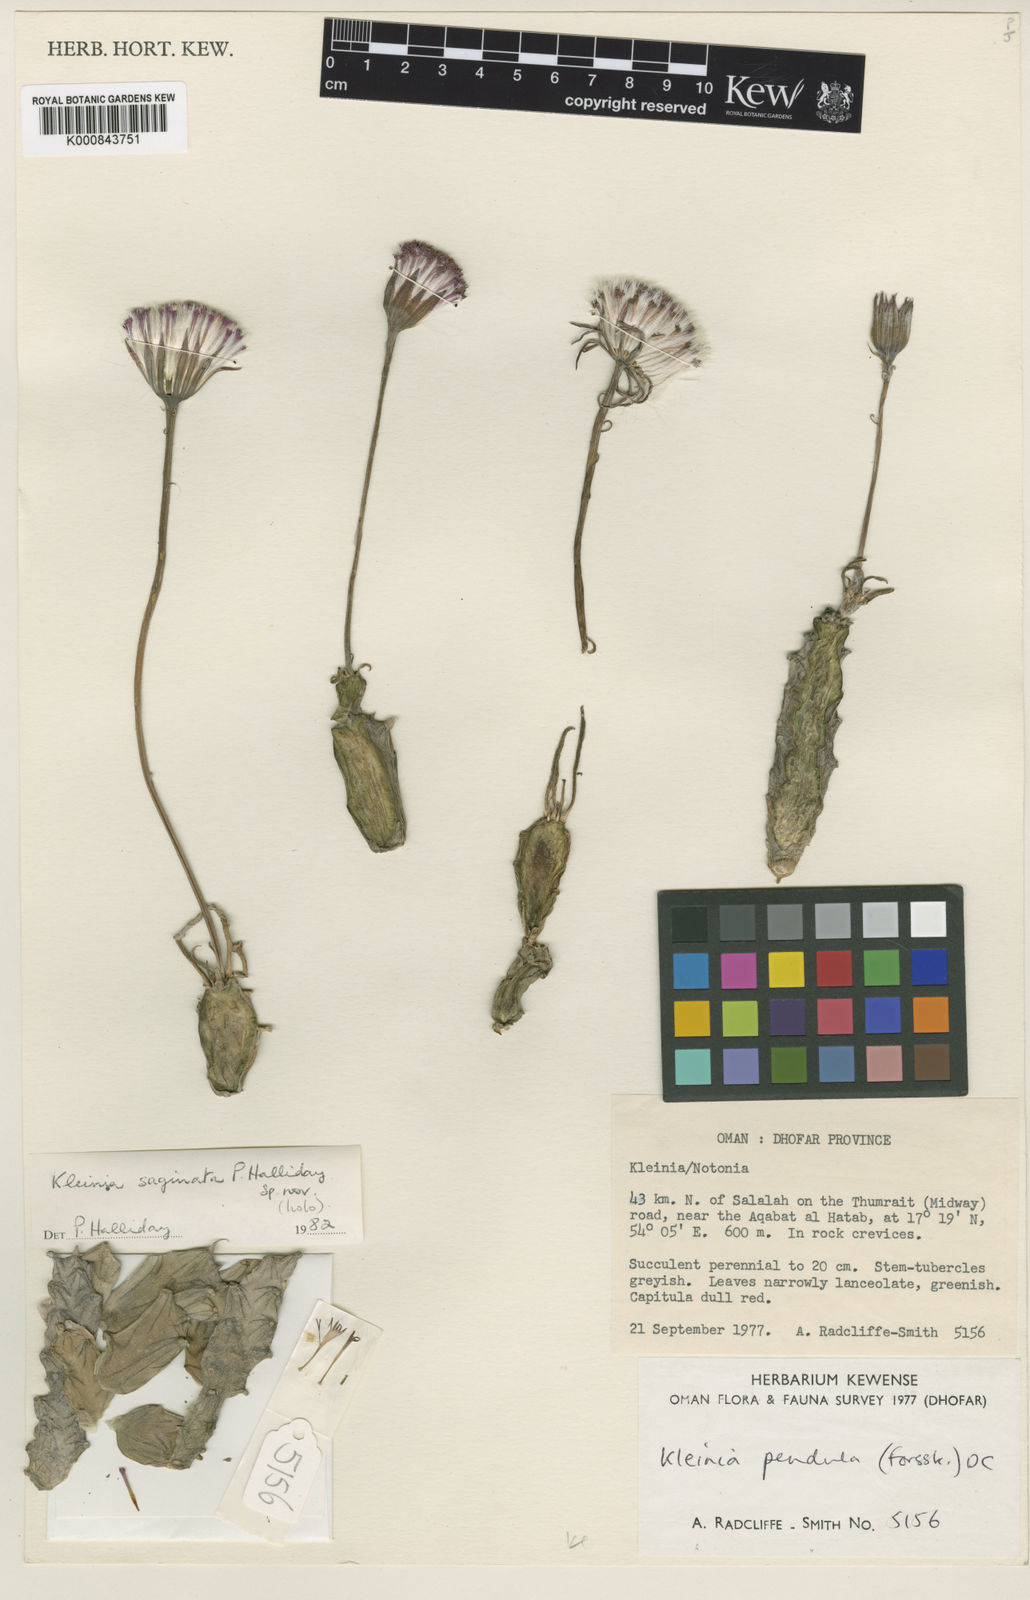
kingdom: Plantae
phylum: Tracheophyta
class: Magnoliopsida
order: Asterales
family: Asteraceae
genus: Kleinia
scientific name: Kleinia saginata
